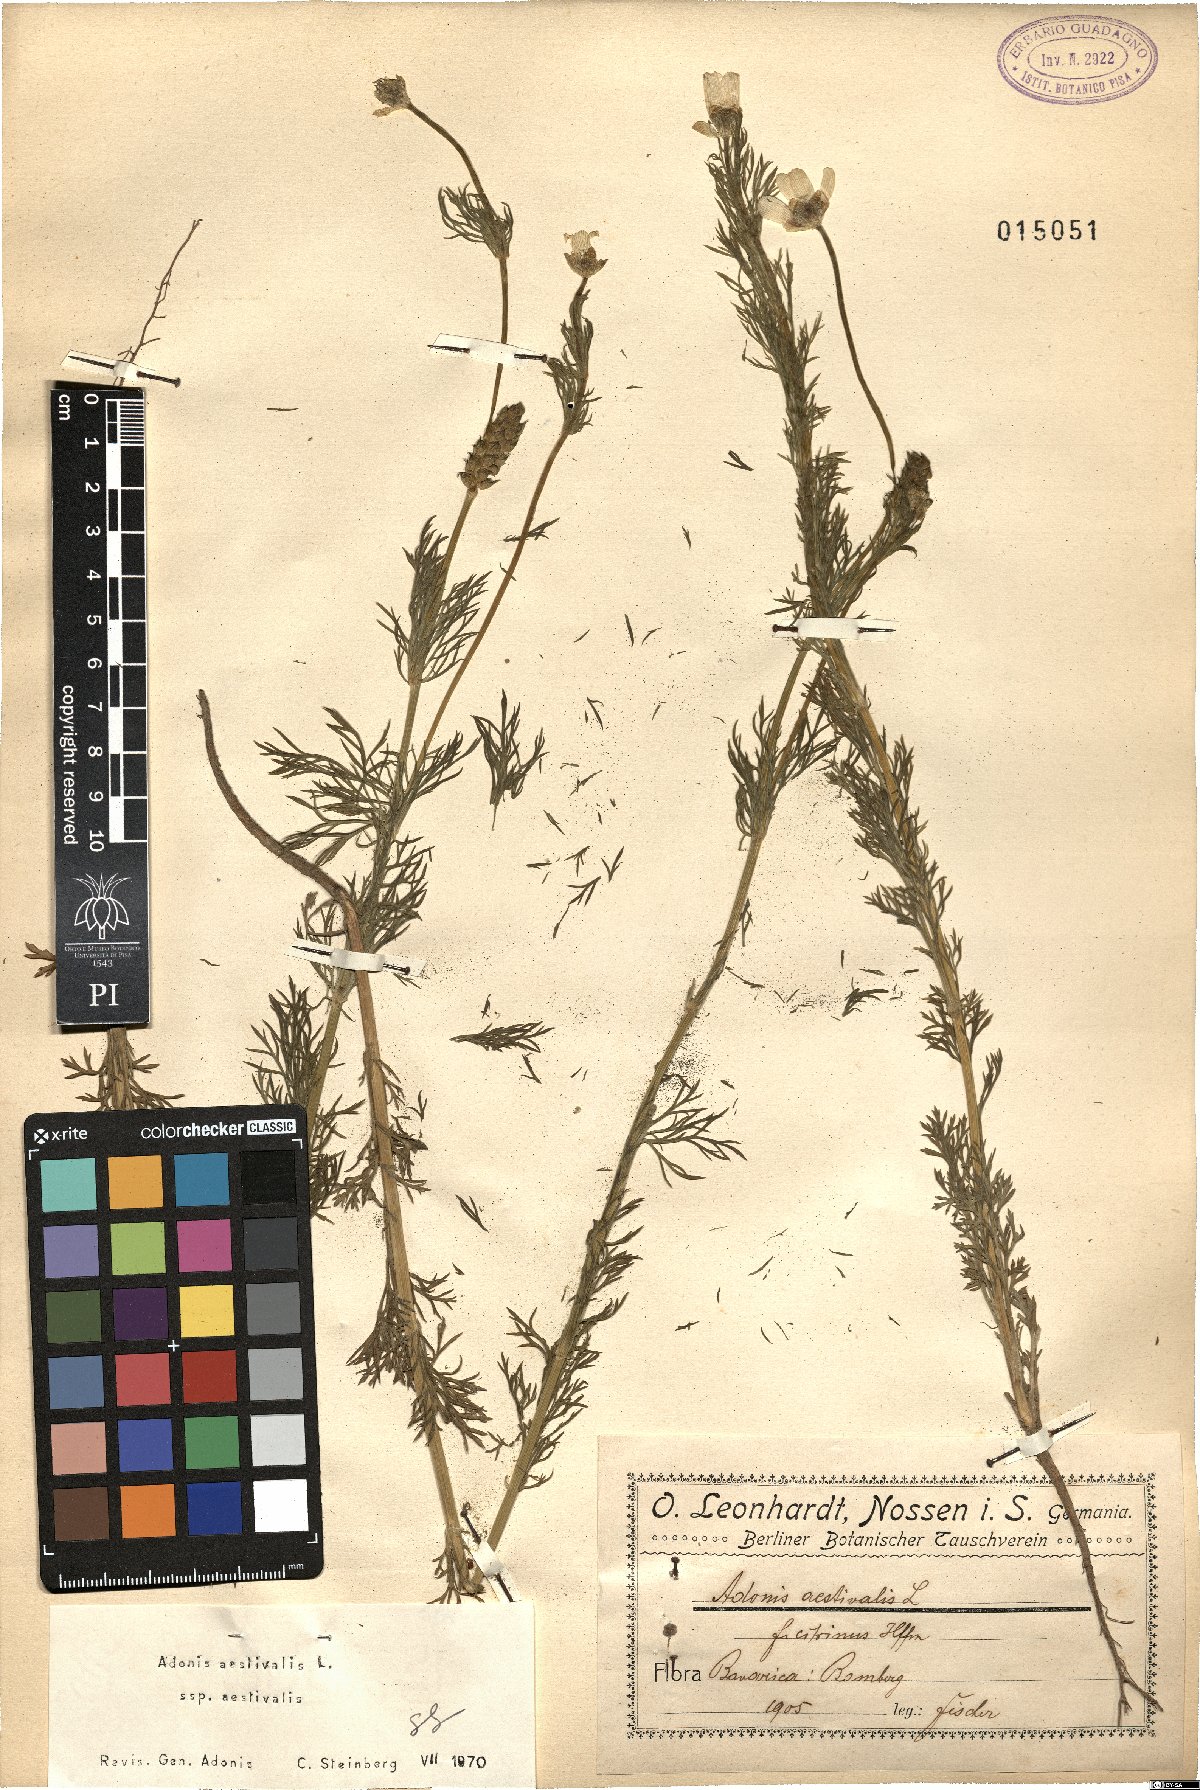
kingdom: Plantae
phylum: Tracheophyta
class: Magnoliopsida
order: Ranunculales
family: Ranunculaceae
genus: Adonis
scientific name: Adonis aestivalis
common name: Summer pheasant's-eye
